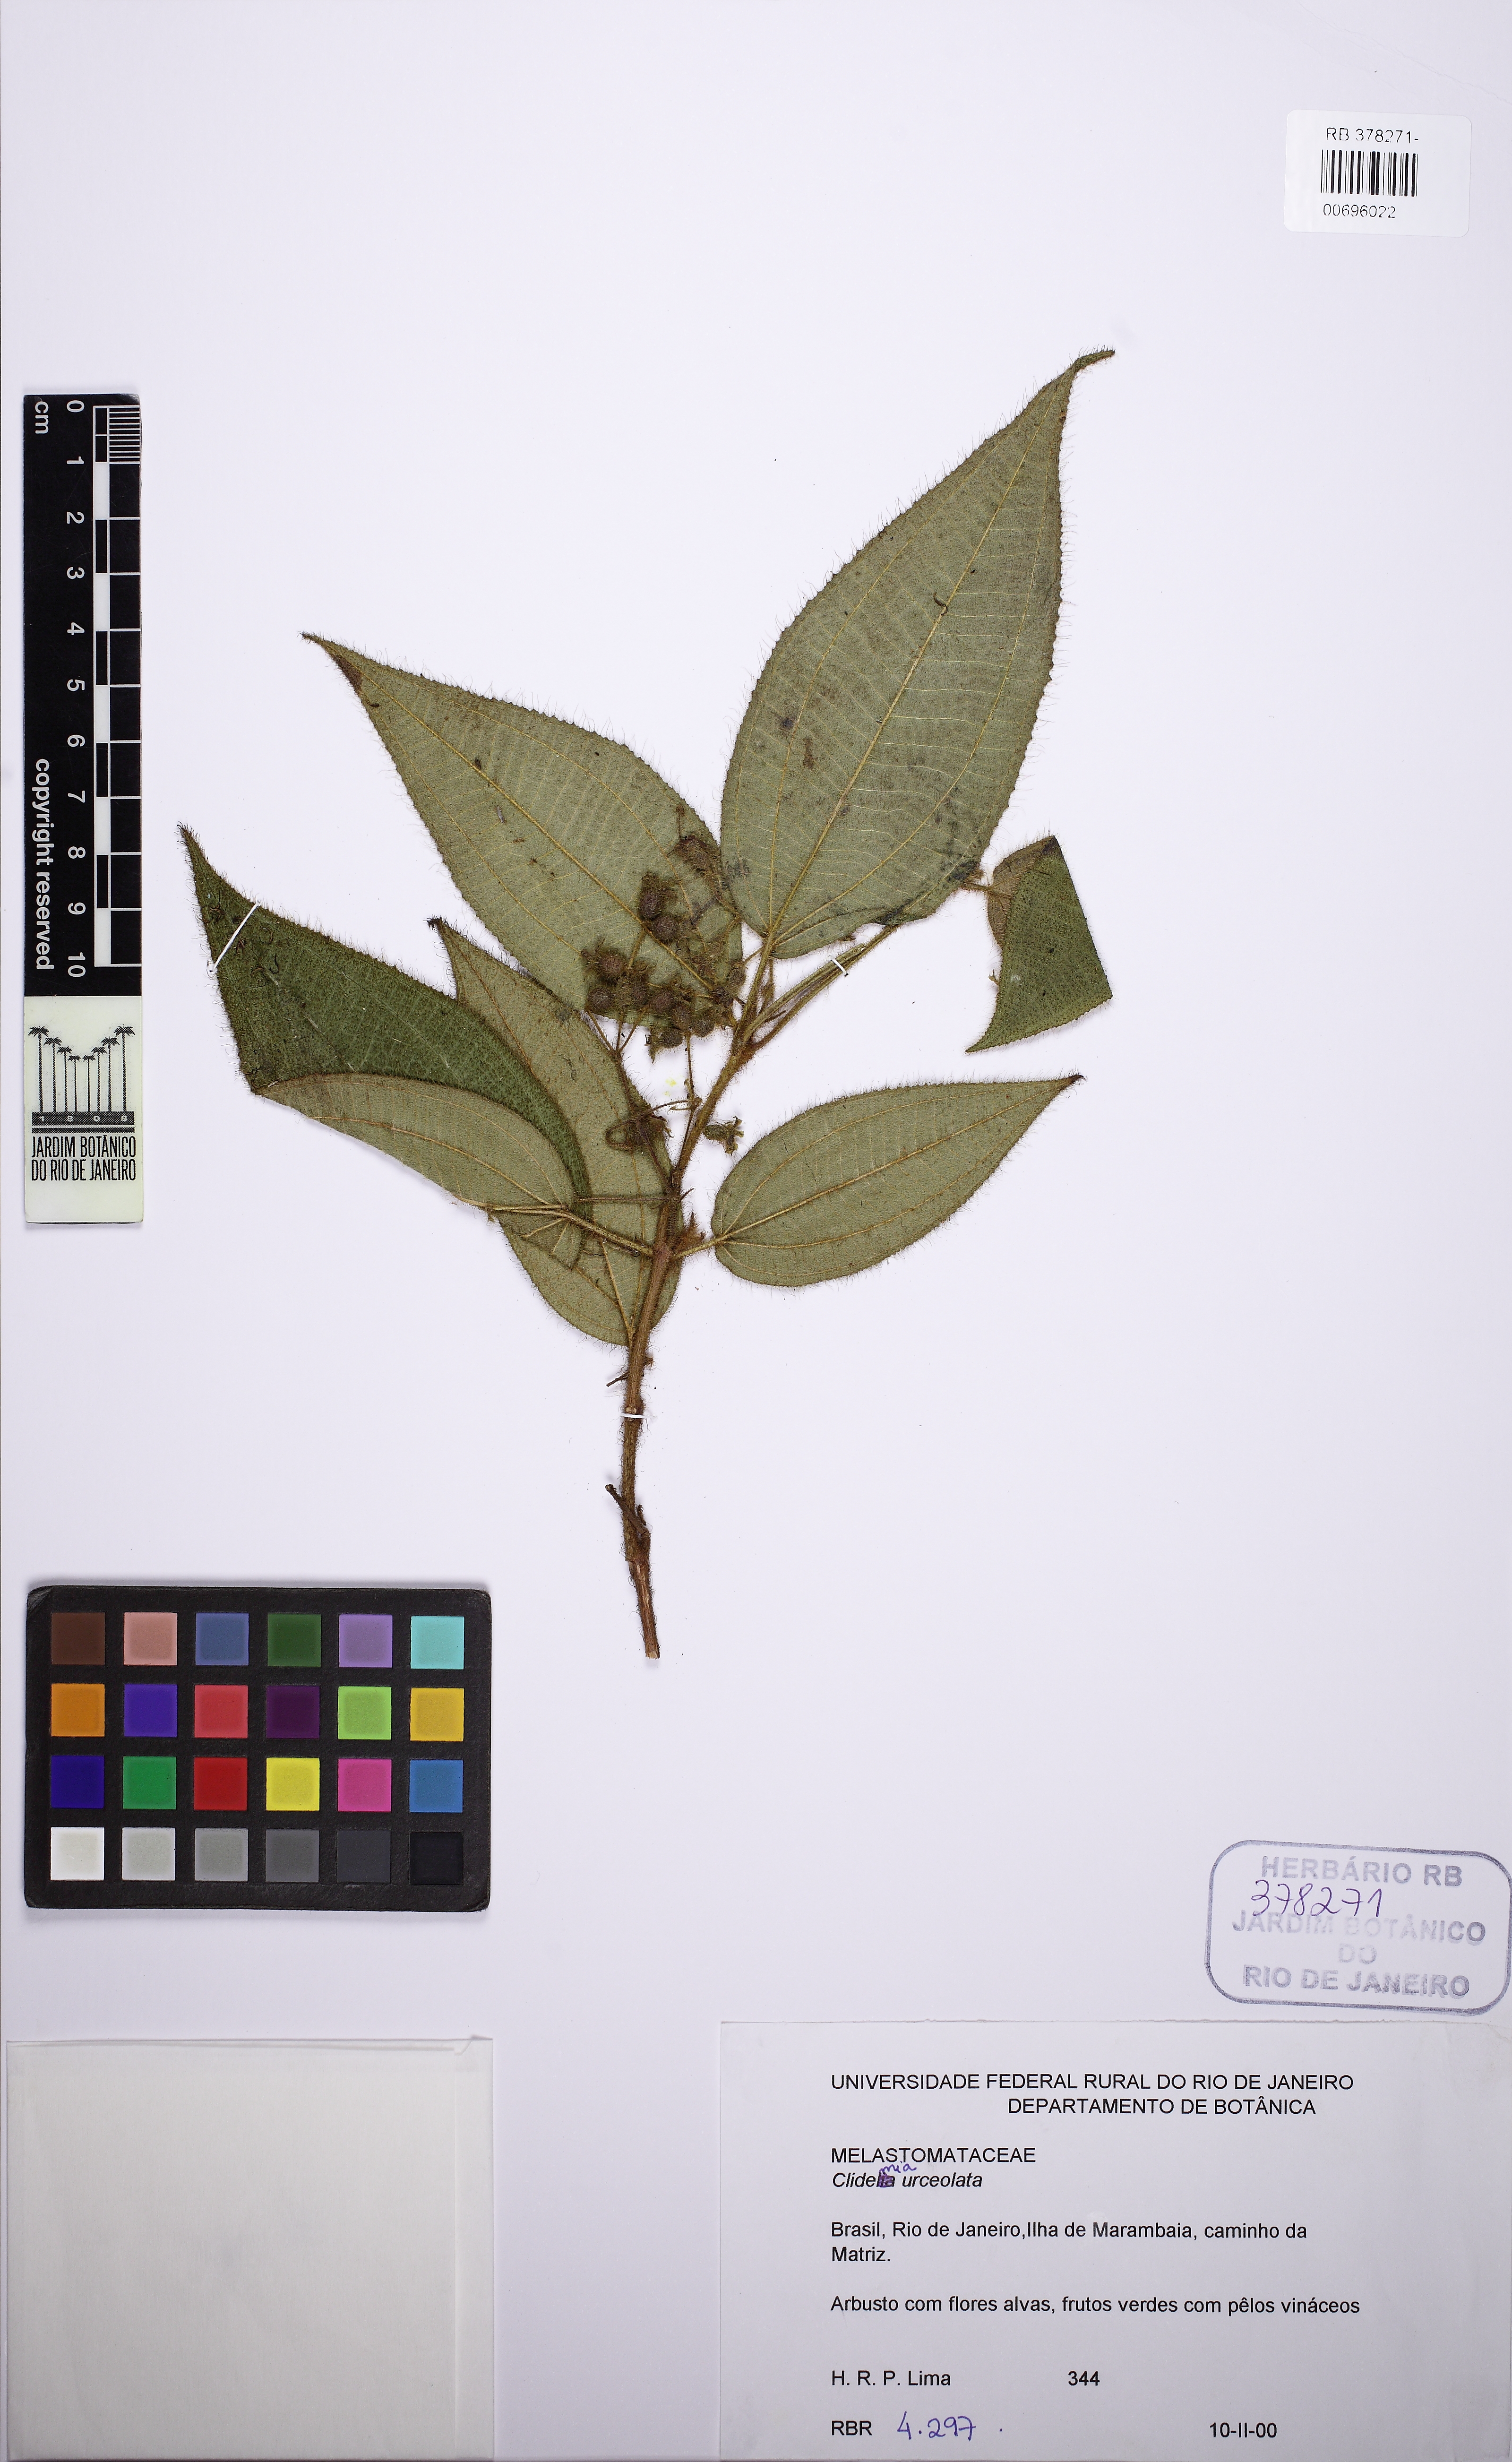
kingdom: Plantae
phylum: Tracheophyta
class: Magnoliopsida
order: Myrtales
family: Melastomataceae
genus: Miconia
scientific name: Miconia neourceolata
